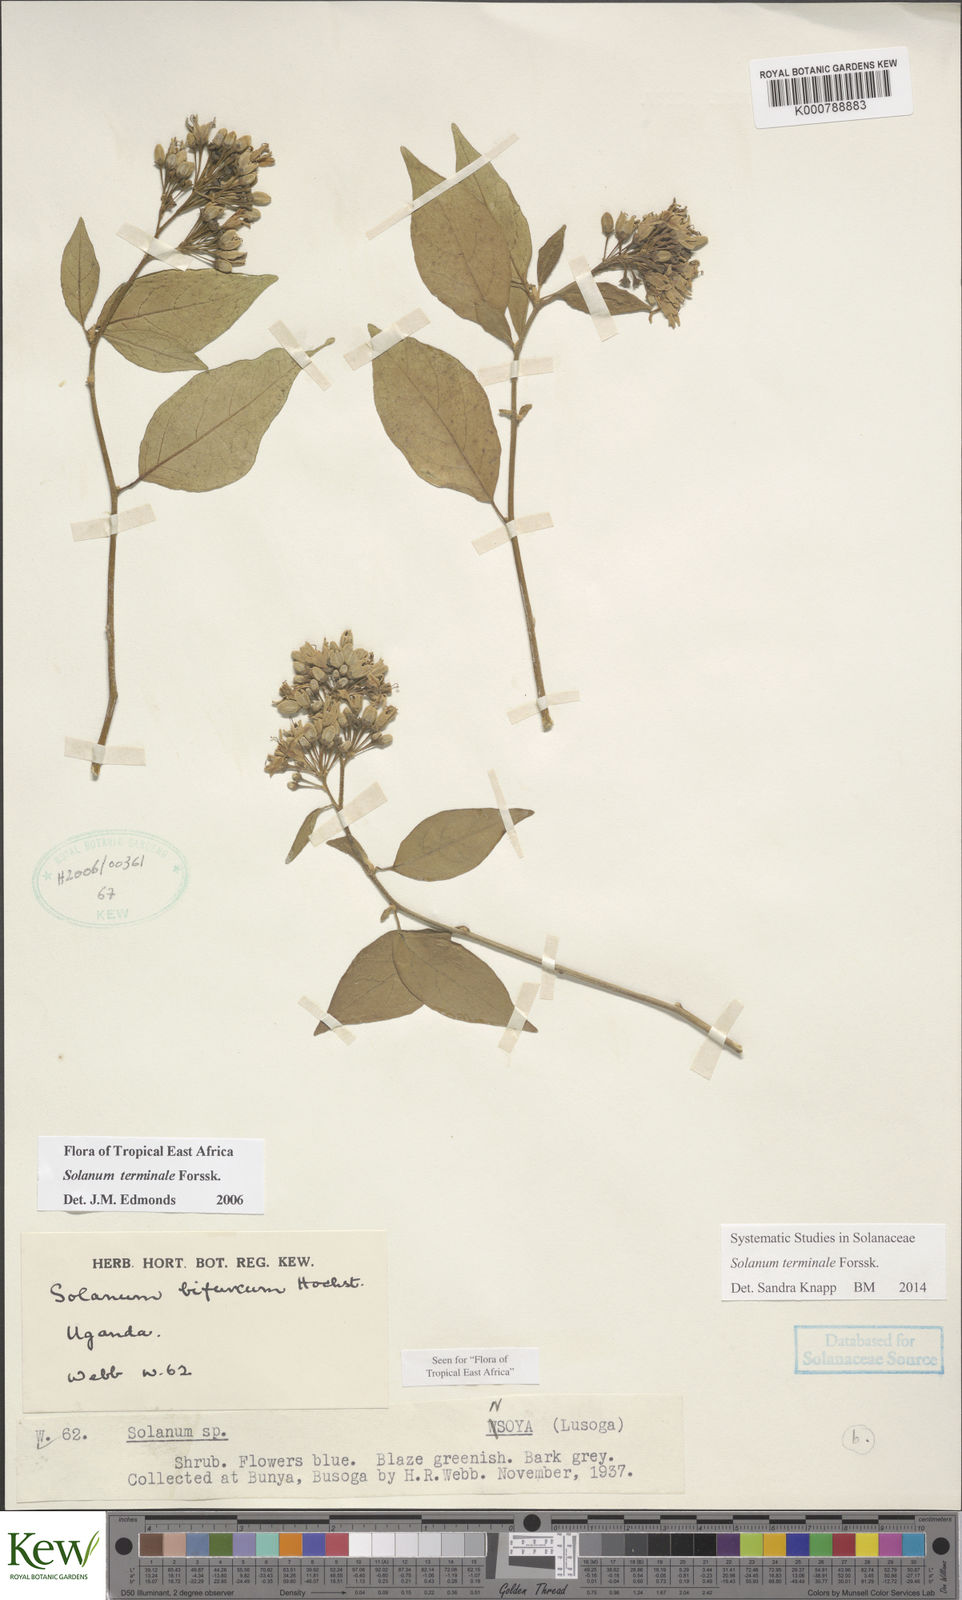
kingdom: Plantae
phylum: Tracheophyta
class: Magnoliopsida
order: Solanales
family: Solanaceae
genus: Solanum
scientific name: Solanum terminale
